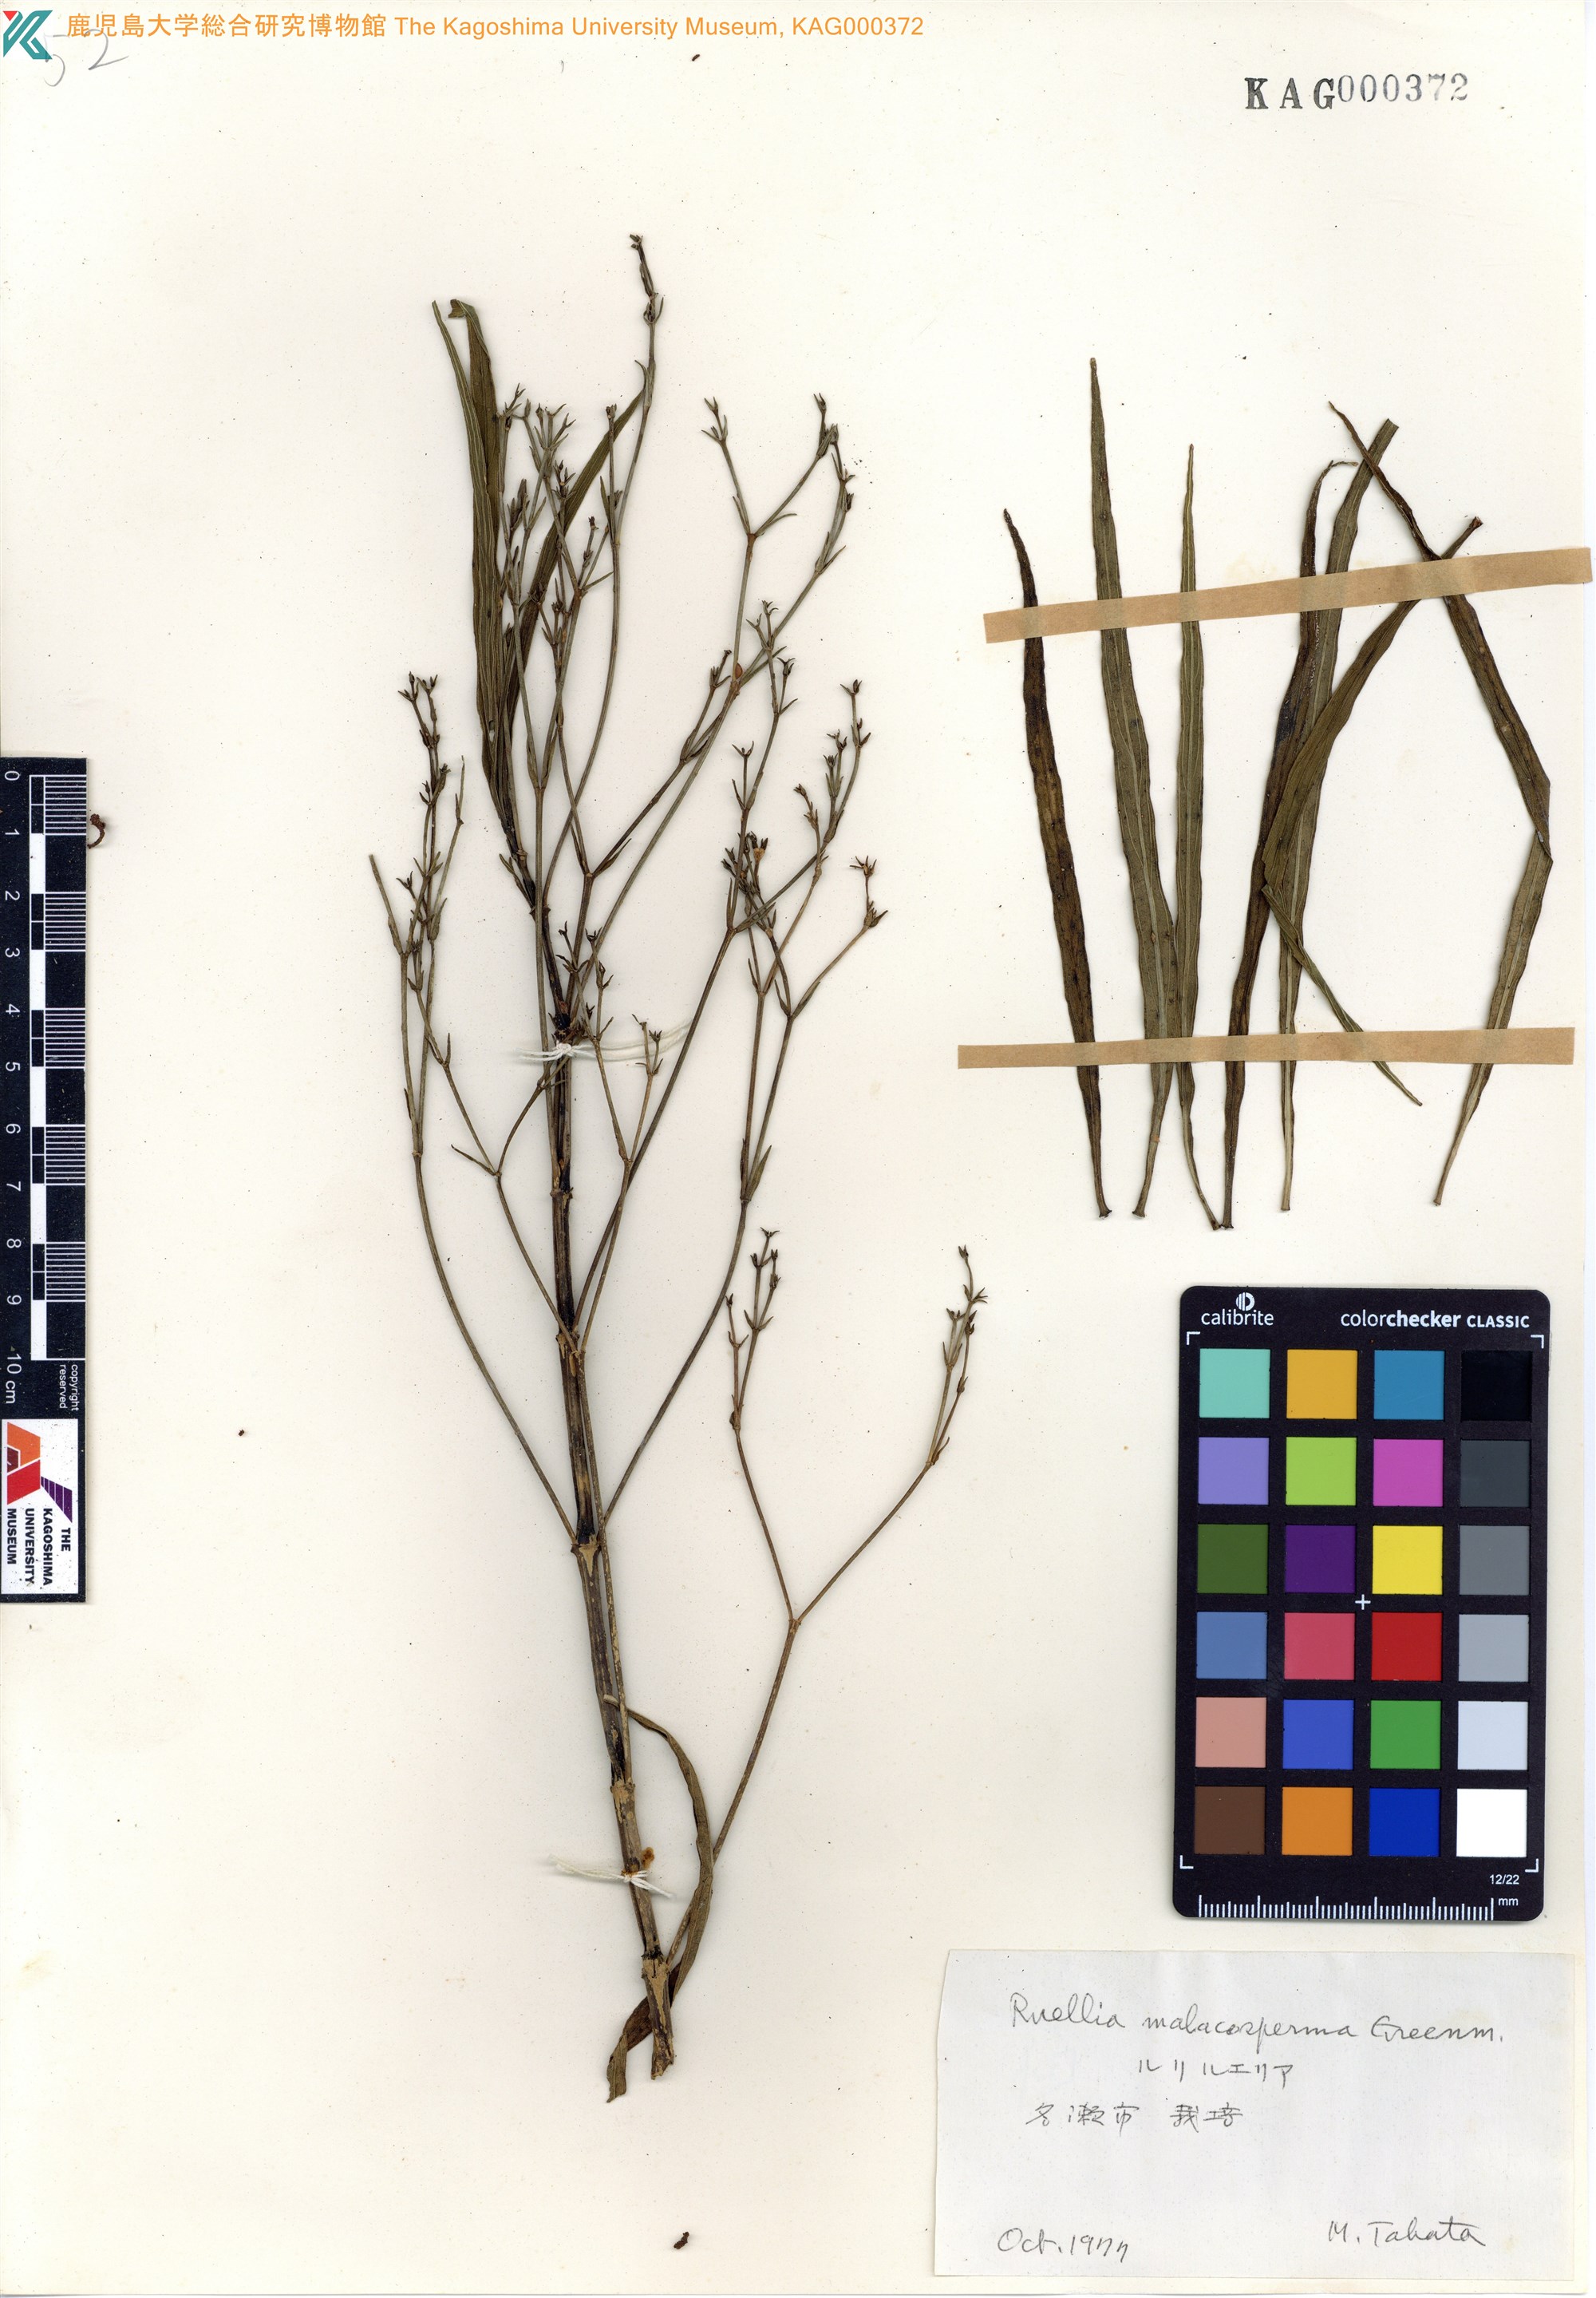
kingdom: Plantae
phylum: Tracheophyta
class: Magnoliopsida
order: Lamiales
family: Acanthaceae
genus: Ruellia
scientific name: Ruellia malacosperma
